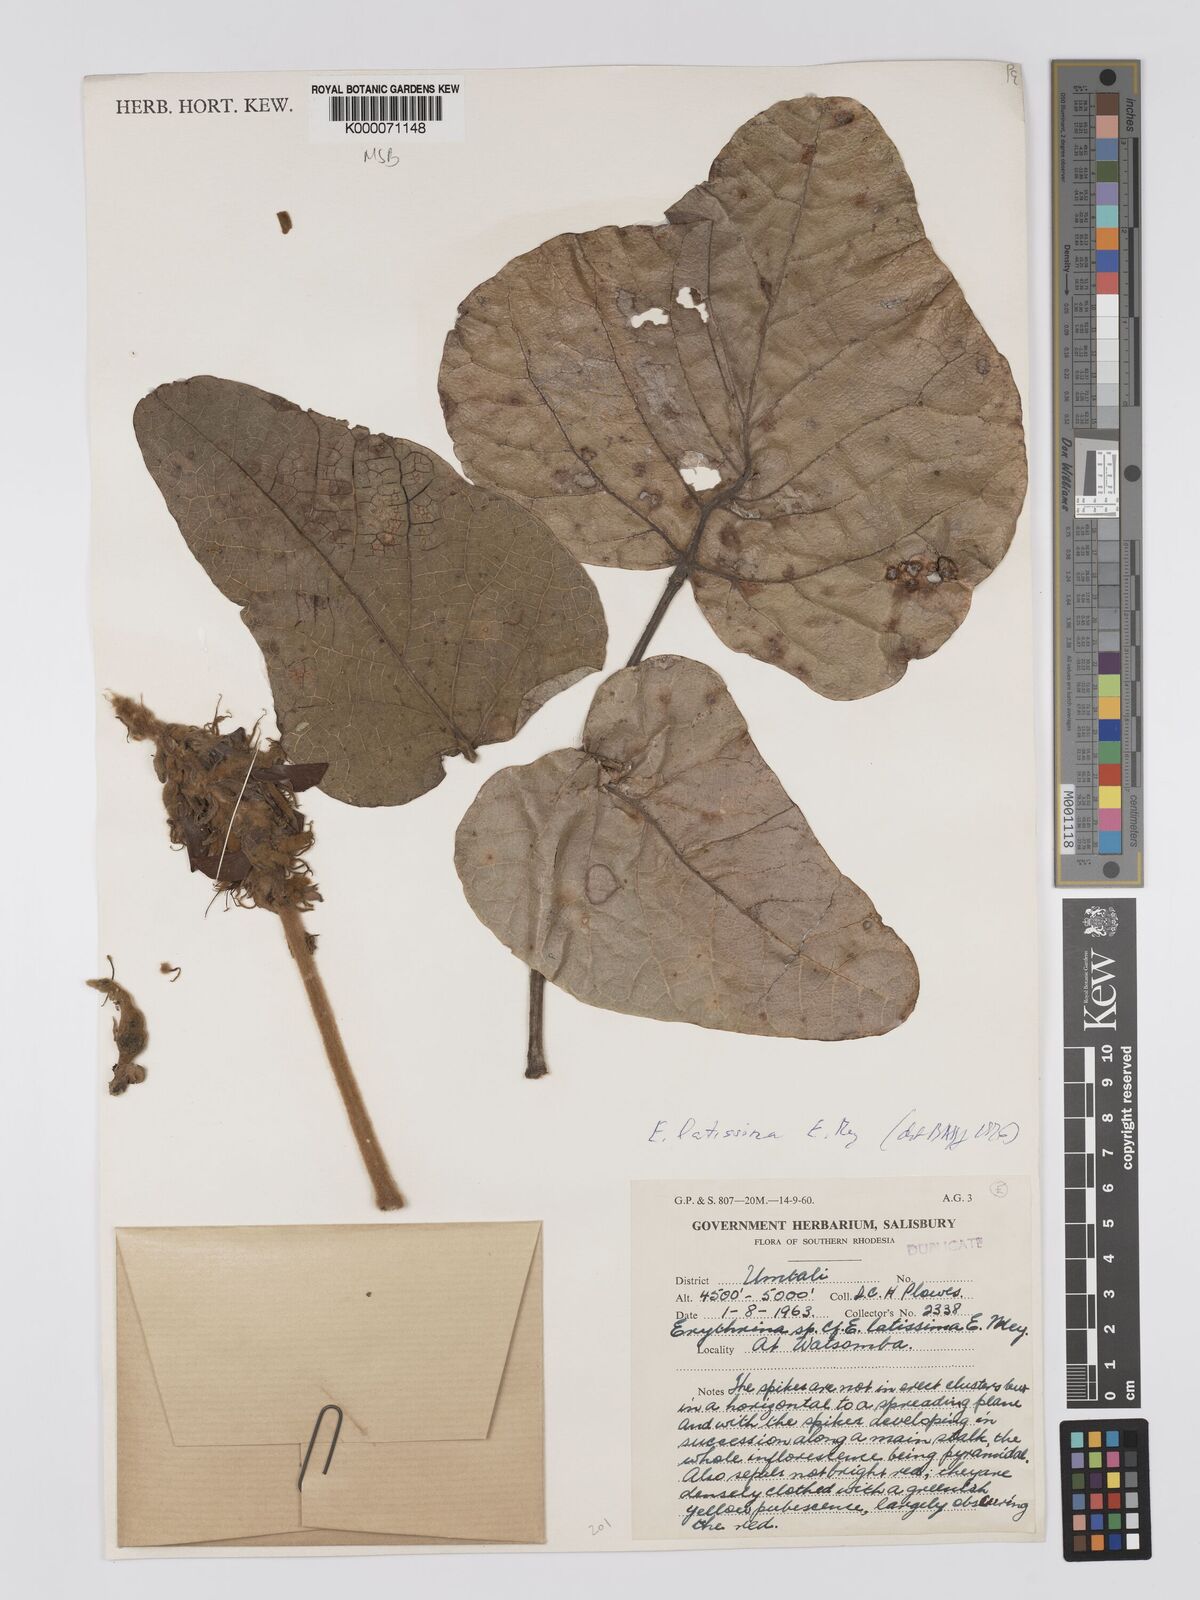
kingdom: Plantae
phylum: Tracheophyta
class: Magnoliopsida
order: Fabales
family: Fabaceae
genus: Erythrina
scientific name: Erythrina latissima
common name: Broad-leaved coral tree
